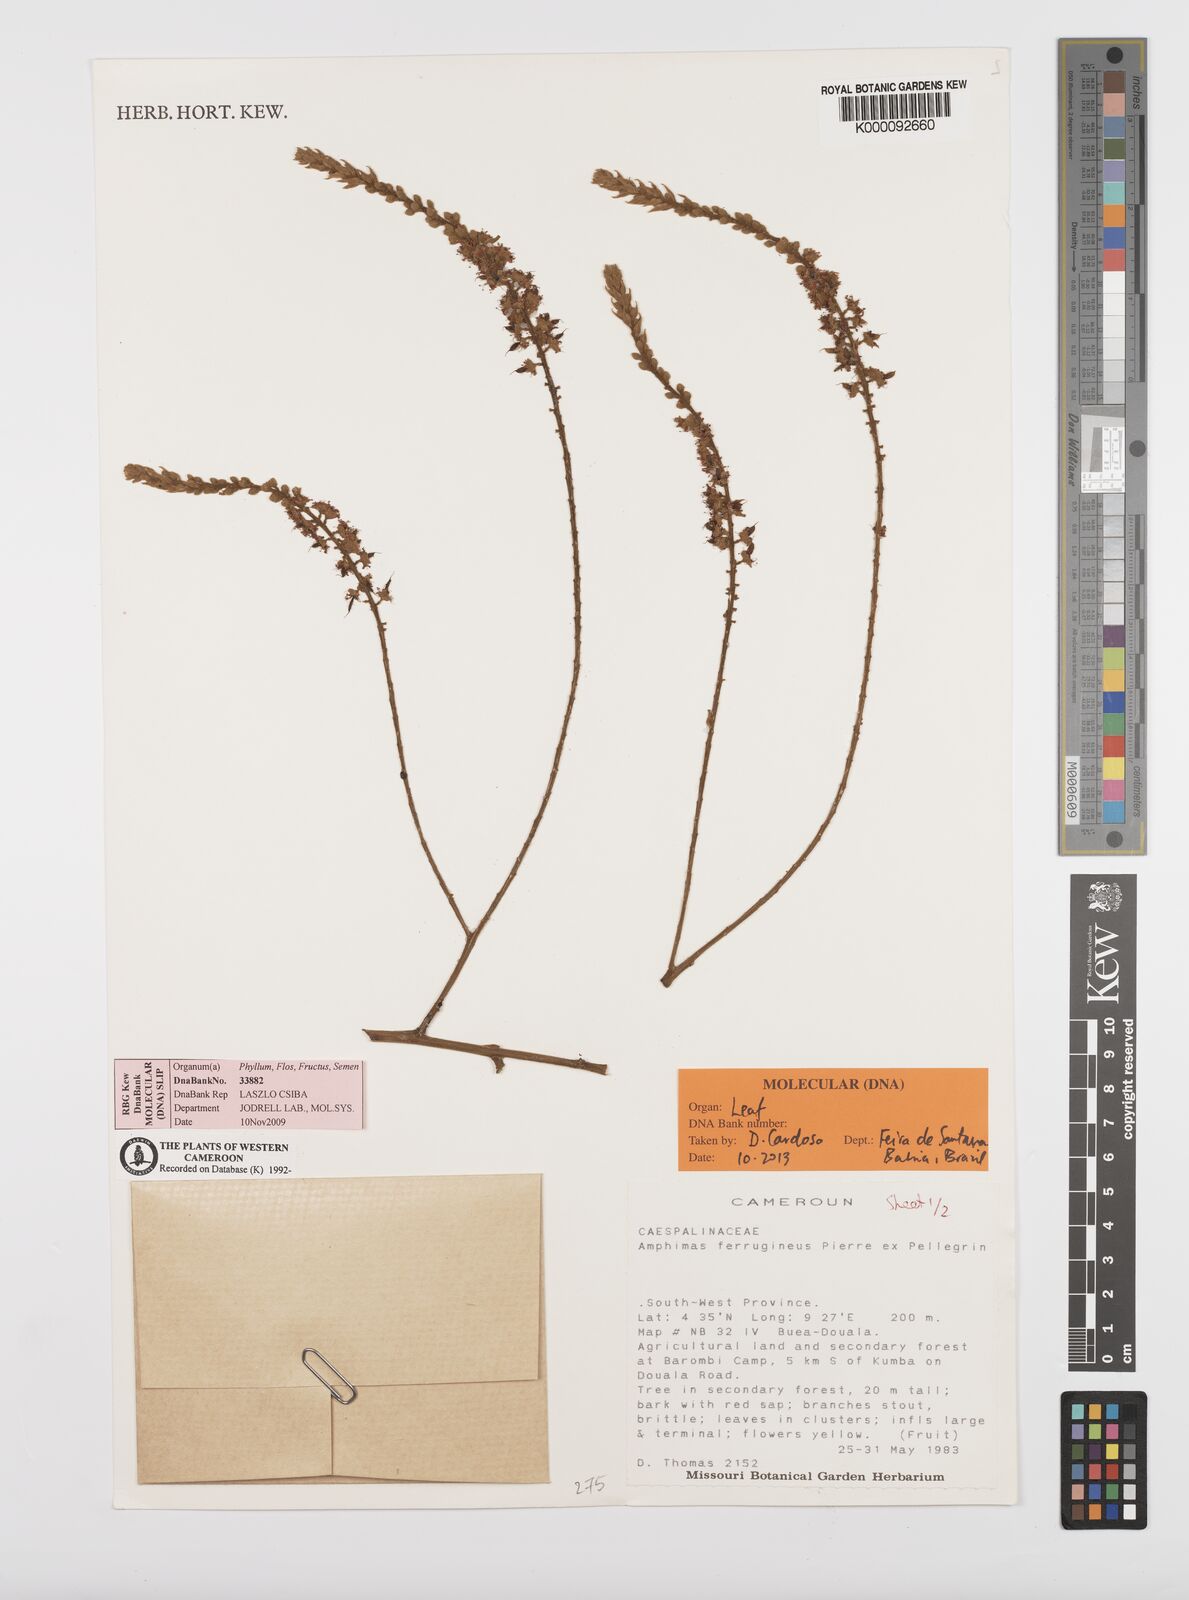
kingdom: Plantae
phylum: Tracheophyta
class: Magnoliopsida
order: Fabales
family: Fabaceae
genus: Amphimas
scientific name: Amphimas ferrugineus
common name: Bokanga
